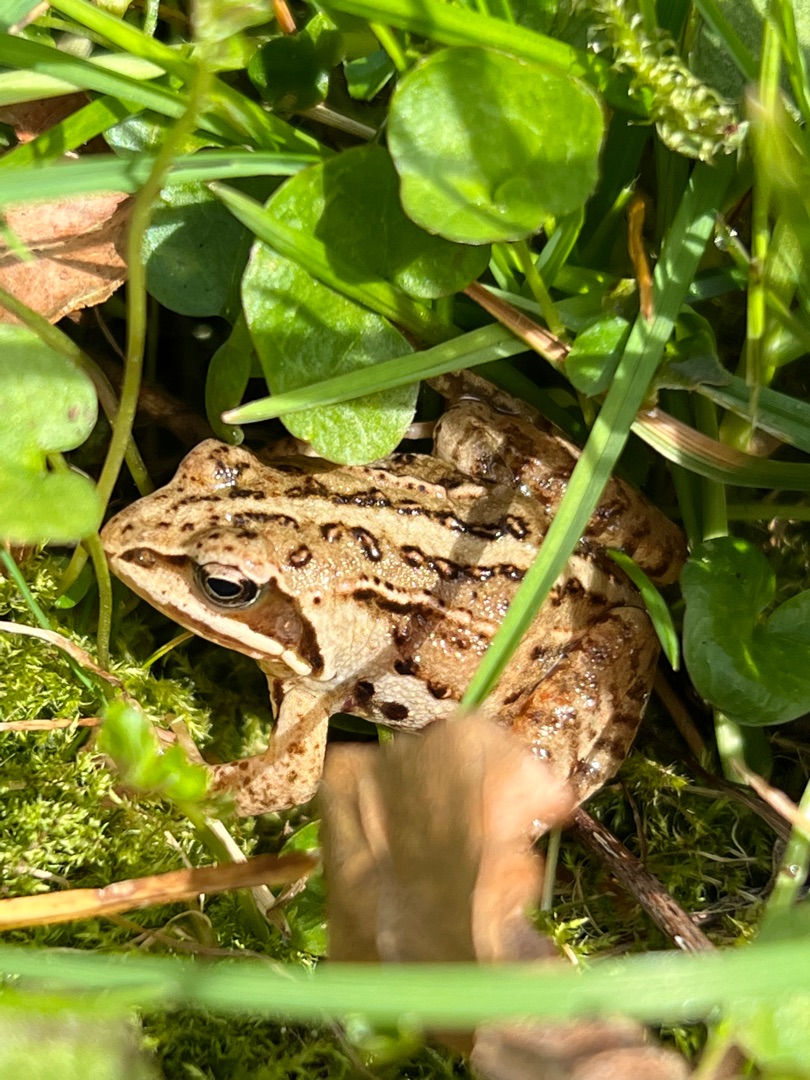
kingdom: Animalia
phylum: Chordata
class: Amphibia
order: Anura
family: Ranidae
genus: Rana
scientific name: Rana arvalis
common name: Spidssnudet frø
